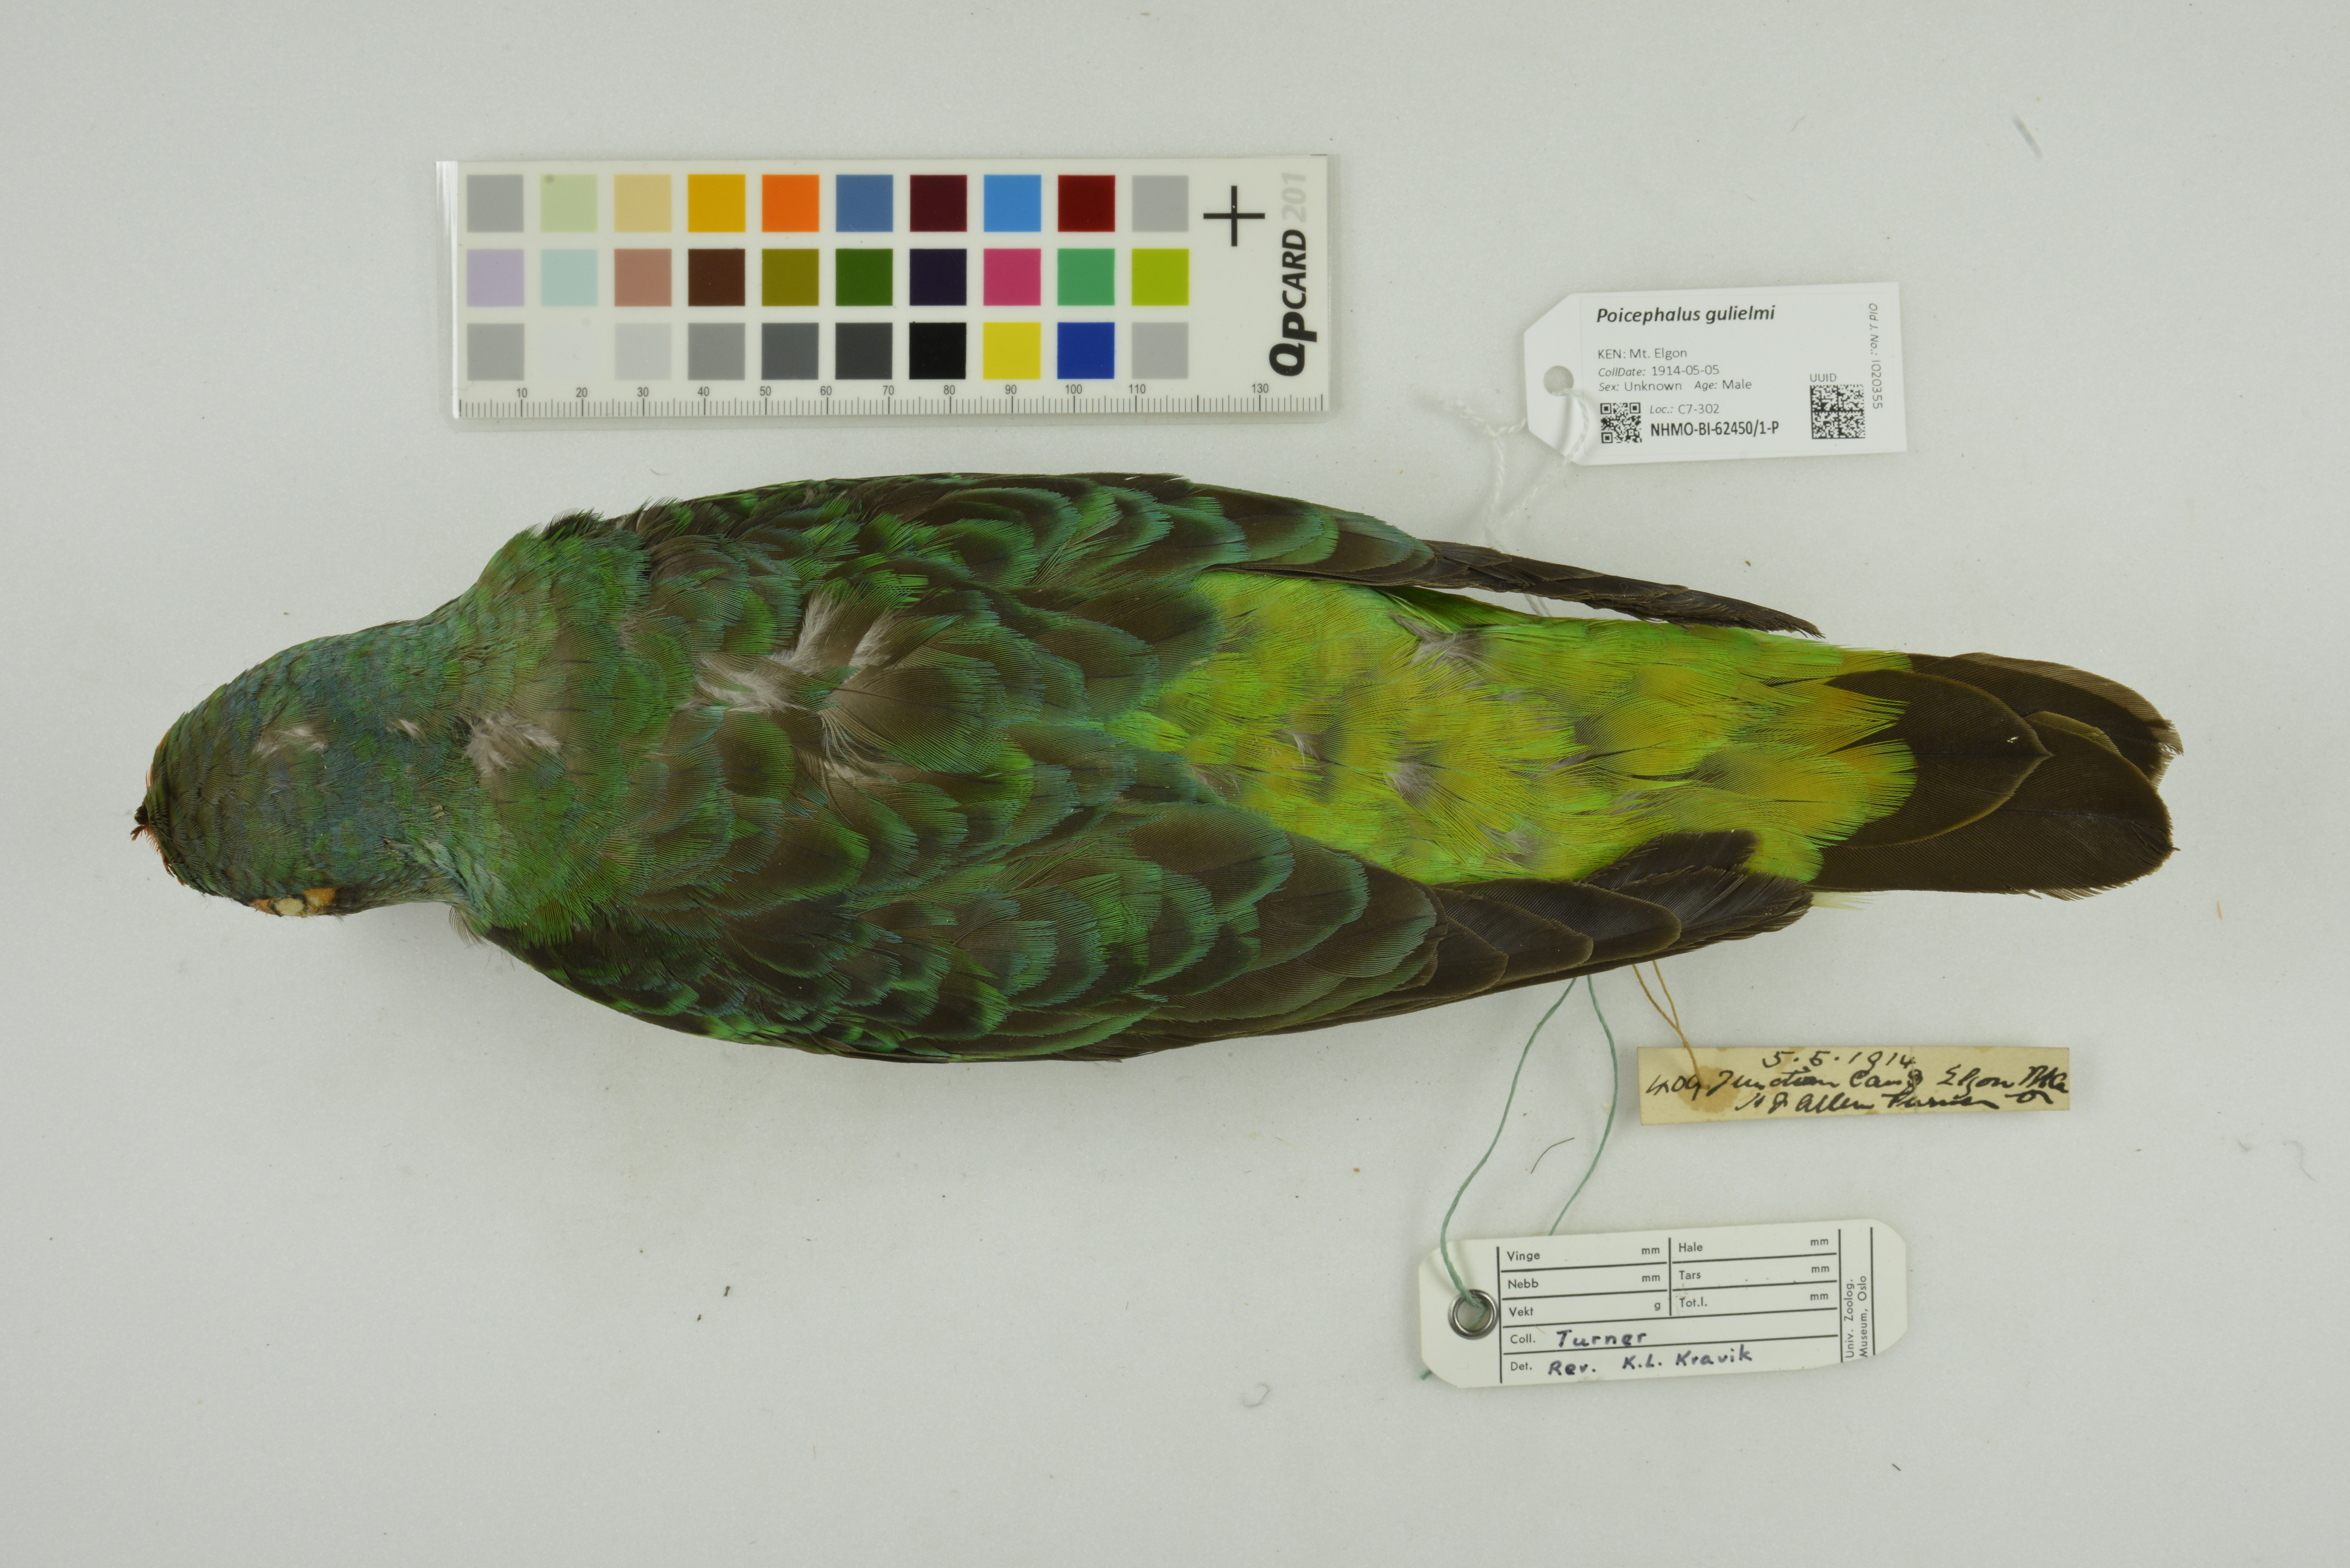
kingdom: Animalia
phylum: Chordata
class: Aves
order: Psittaciformes
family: Psittacidae
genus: Poicephalus
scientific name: Poicephalus gulielmi
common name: Red-fronted parrot
